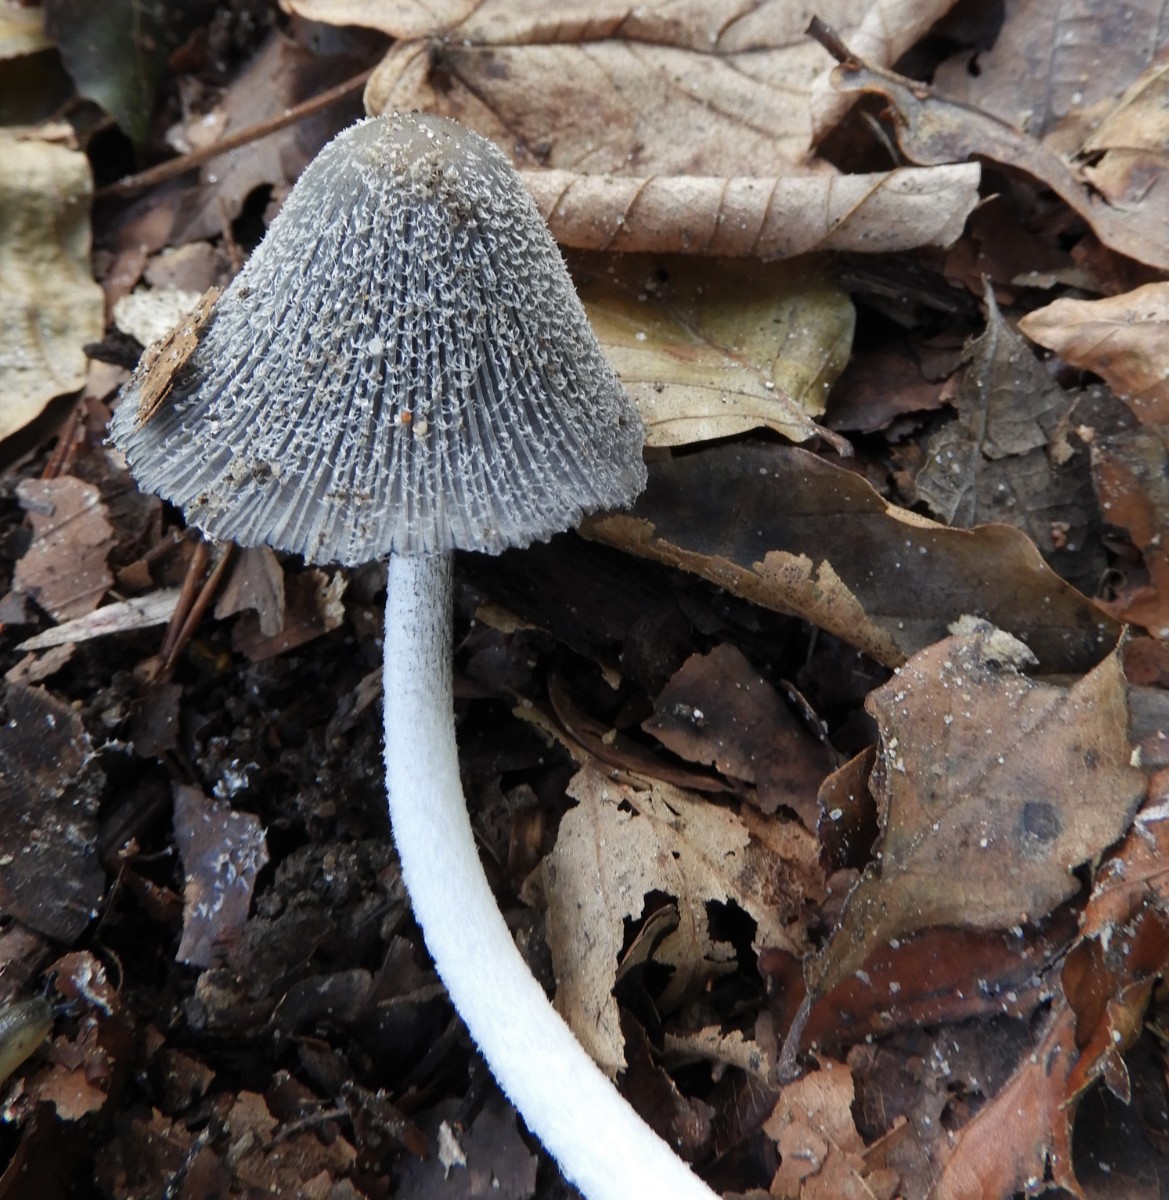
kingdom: Fungi
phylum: Basidiomycota
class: Agaricomycetes
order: Agaricales
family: Psathyrellaceae
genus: Coprinopsis
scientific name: Coprinopsis lagopus
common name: dunstokket blækhat
